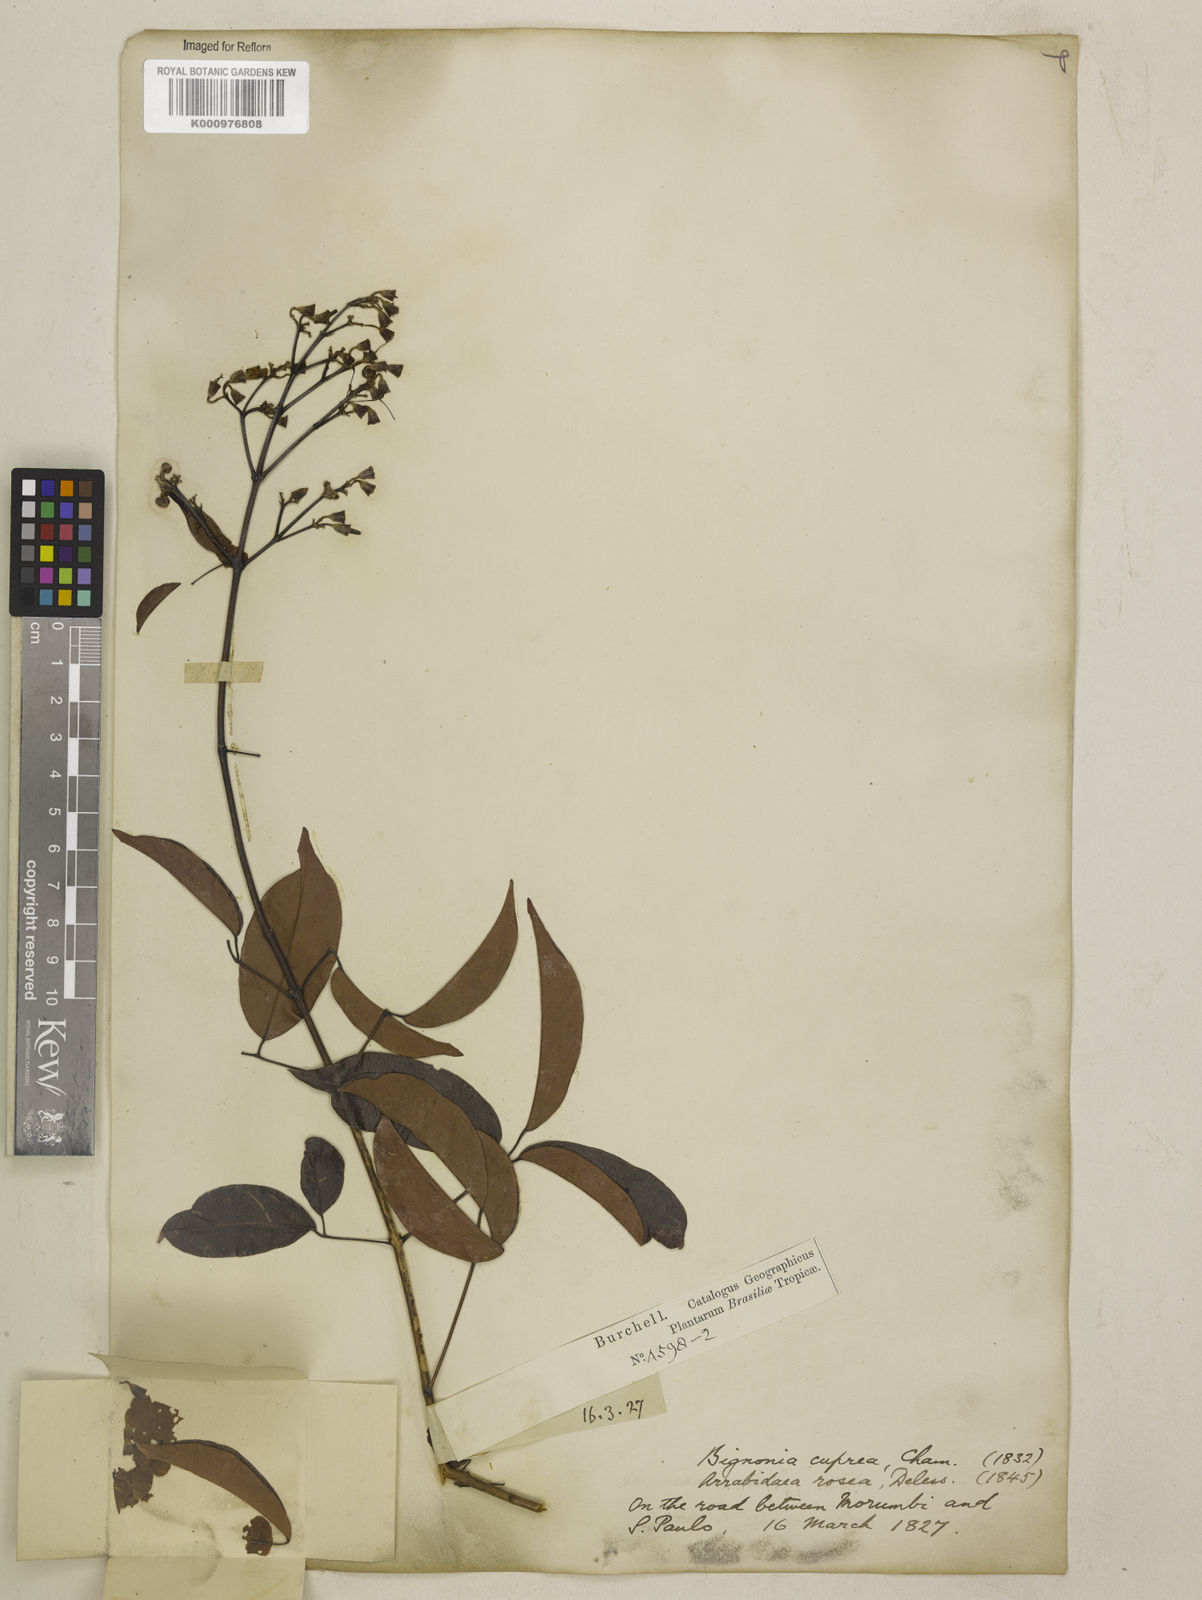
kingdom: Plantae
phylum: Tracheophyta
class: Magnoliopsida
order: Lamiales
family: Bignoniaceae
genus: Fridericia
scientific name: Fridericia chica
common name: Cricketvine
